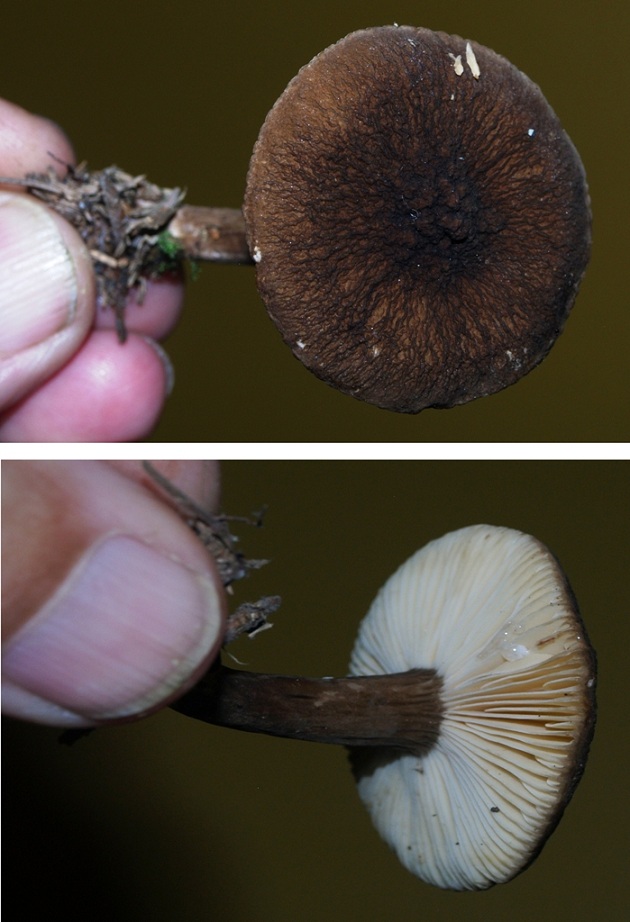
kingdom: Fungi
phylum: Basidiomycota
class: Agaricomycetes
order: Russulales
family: Russulaceae
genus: Lactarius
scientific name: Lactarius lignyotus
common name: fløjls-mælkehat
